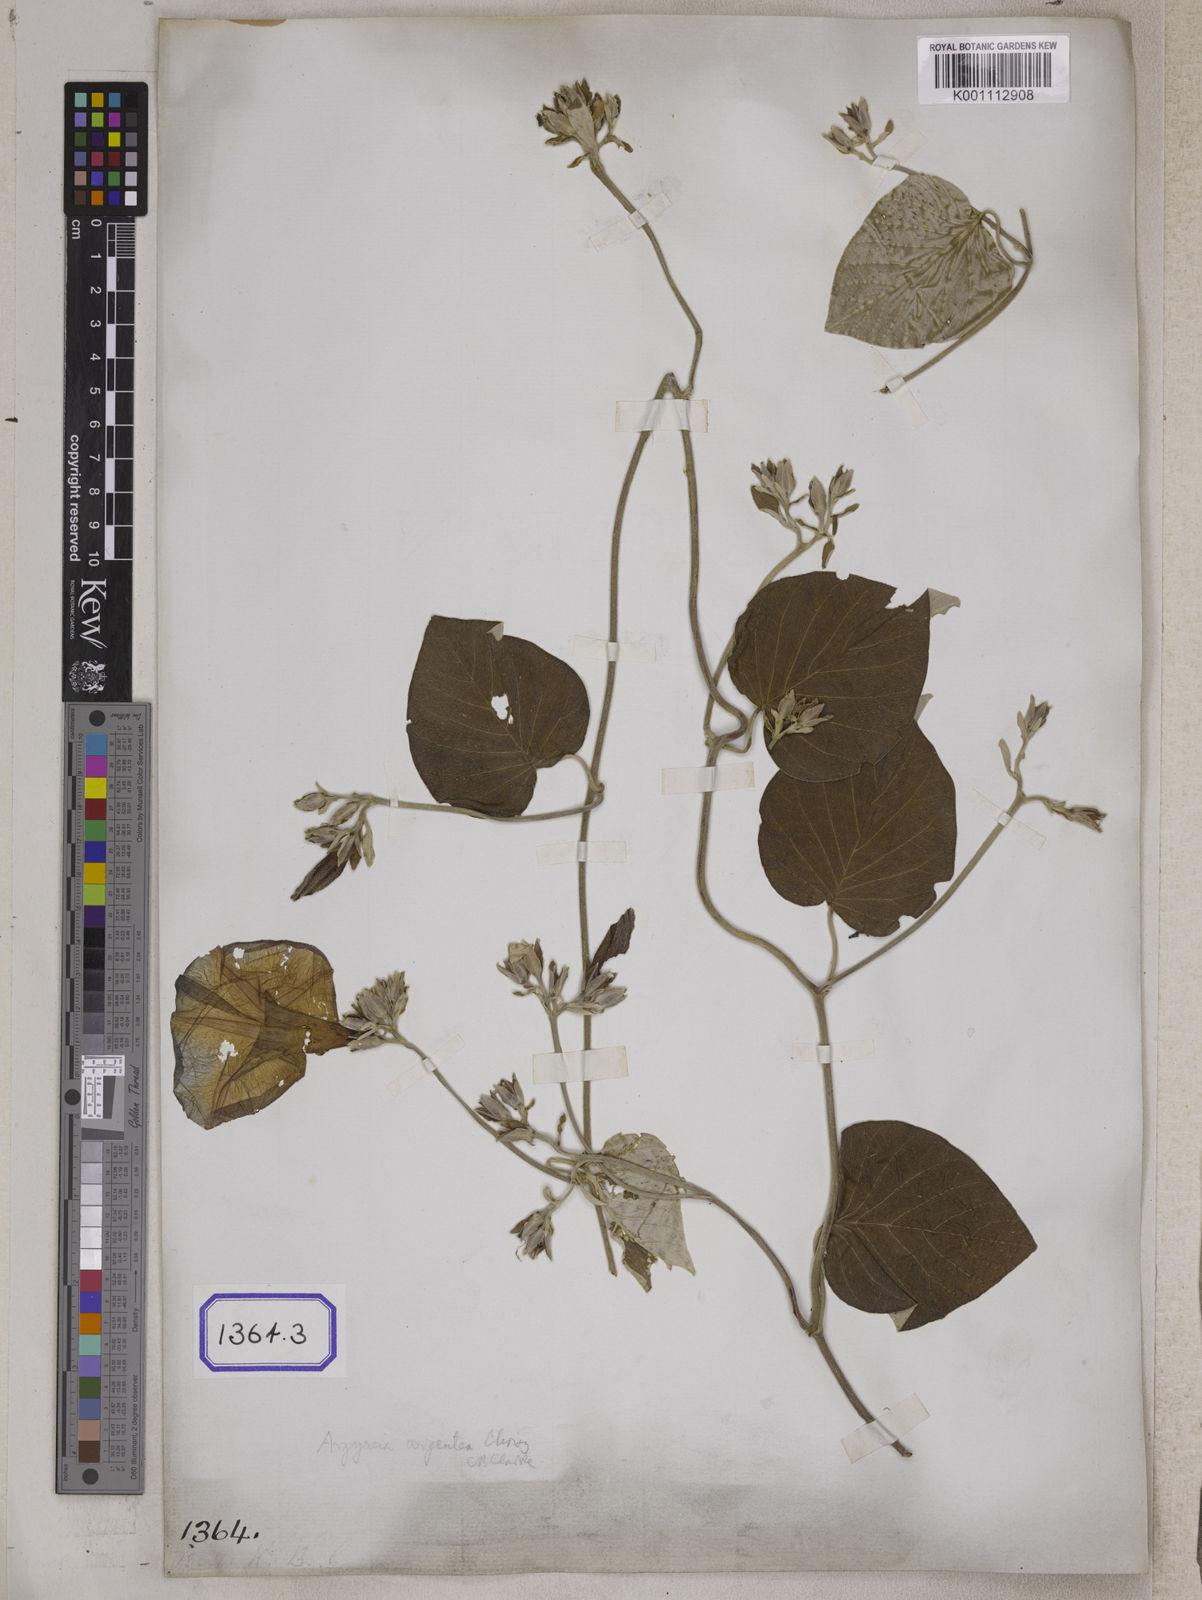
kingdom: Plantae
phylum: Tracheophyta
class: Magnoliopsida
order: Solanales
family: Convolvulaceae
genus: Convolvulus
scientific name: Convolvulus
